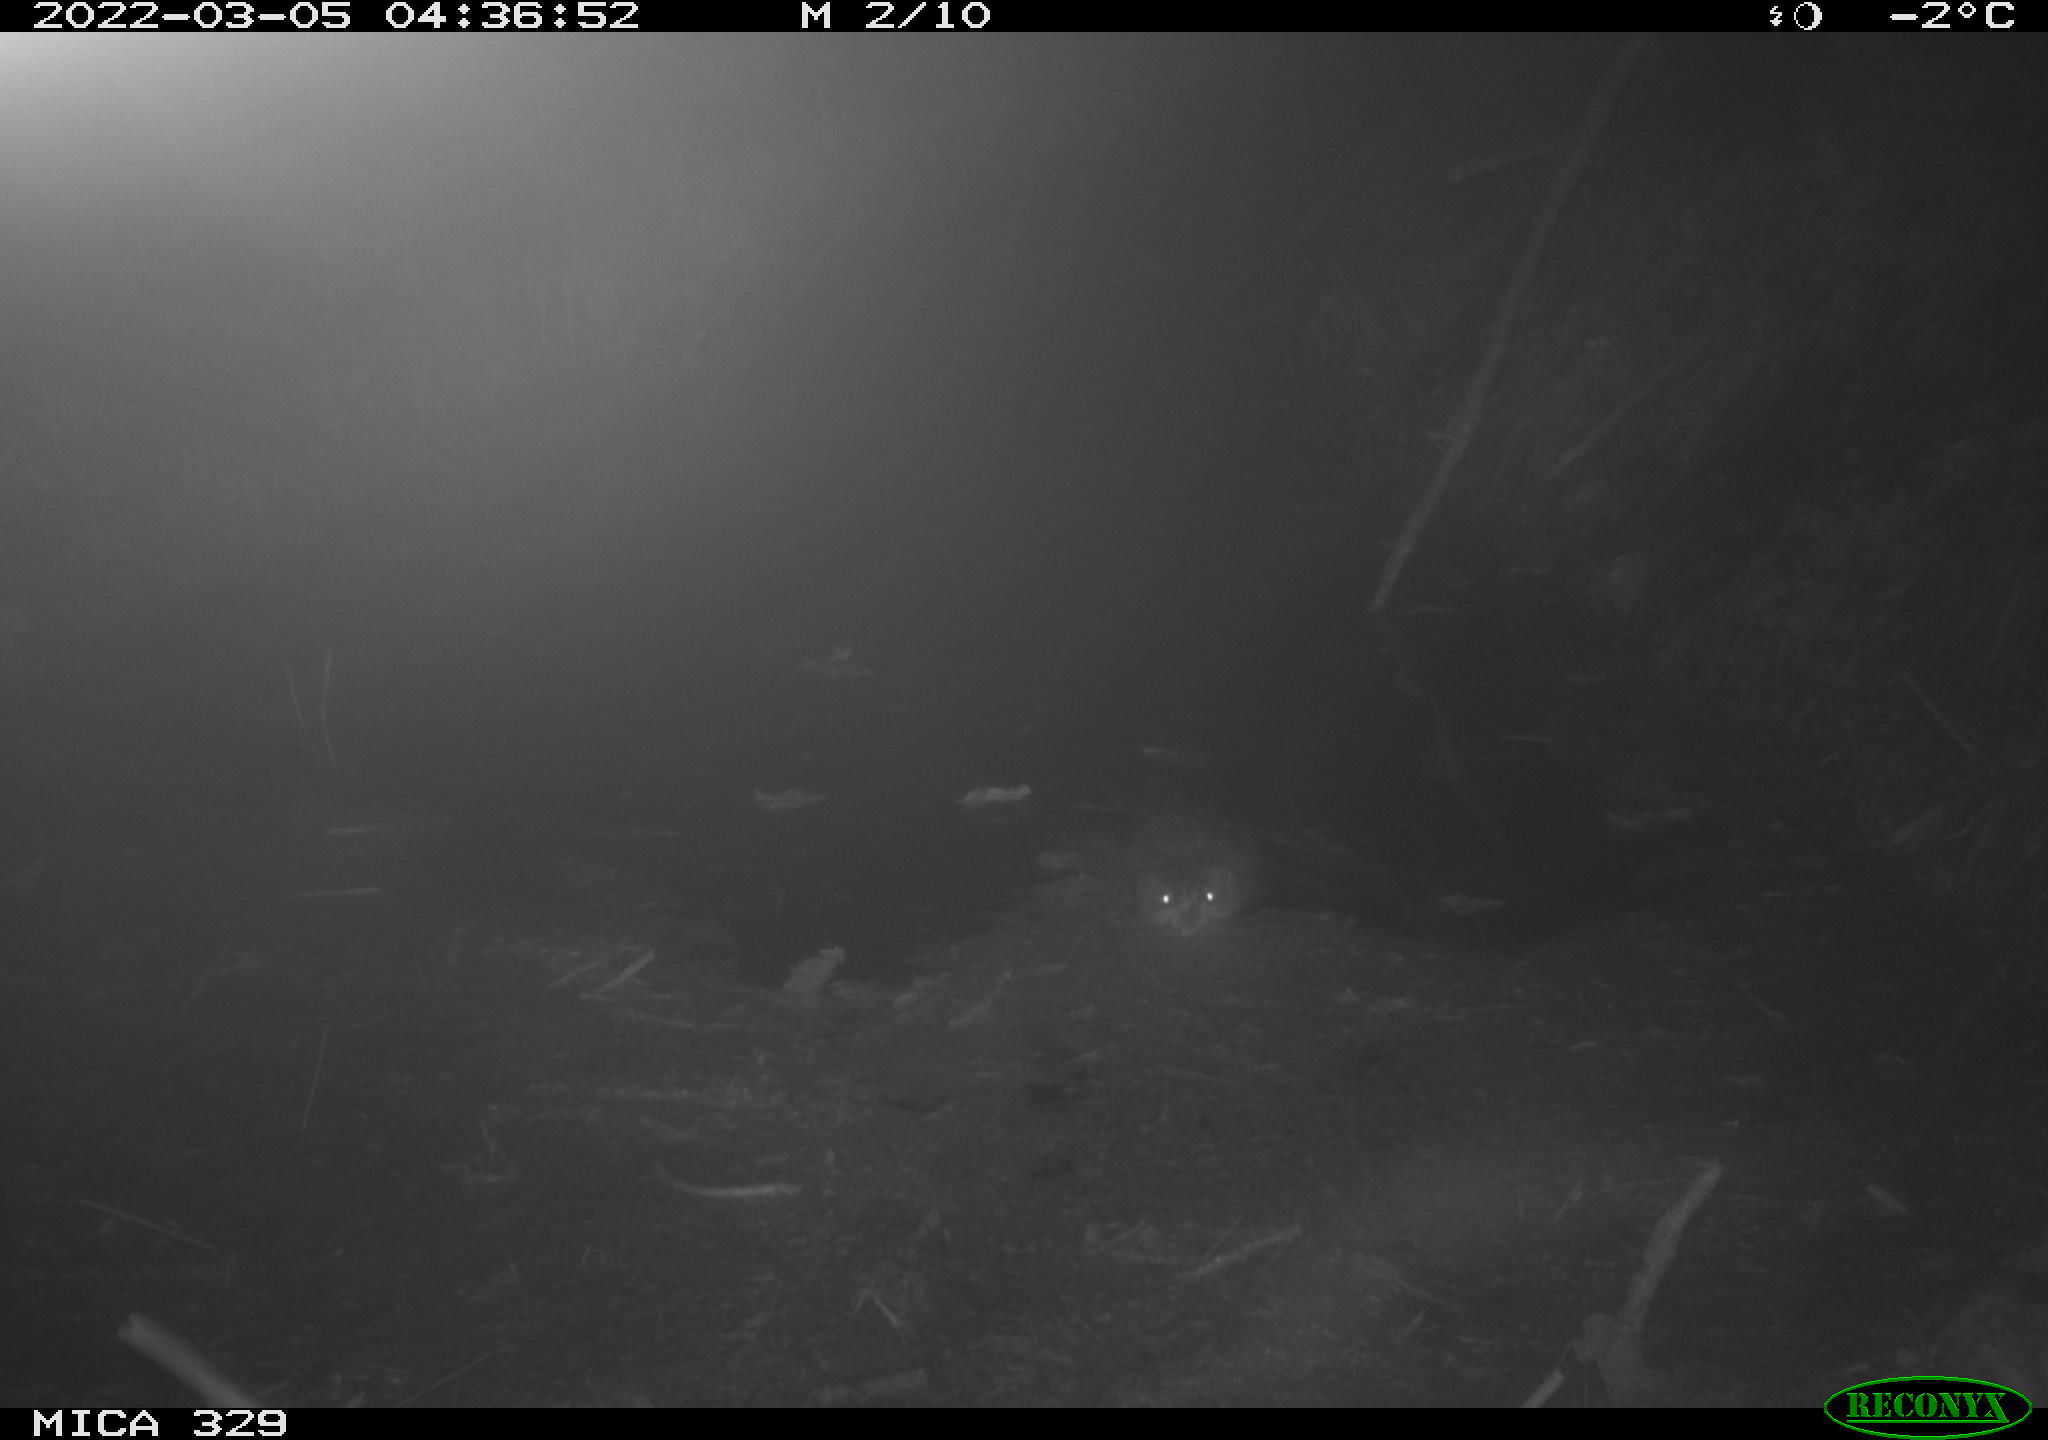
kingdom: Animalia
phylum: Chordata
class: Mammalia
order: Rodentia
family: Cricetidae
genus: Ondatra
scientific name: Ondatra zibethicus
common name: Muskrat
